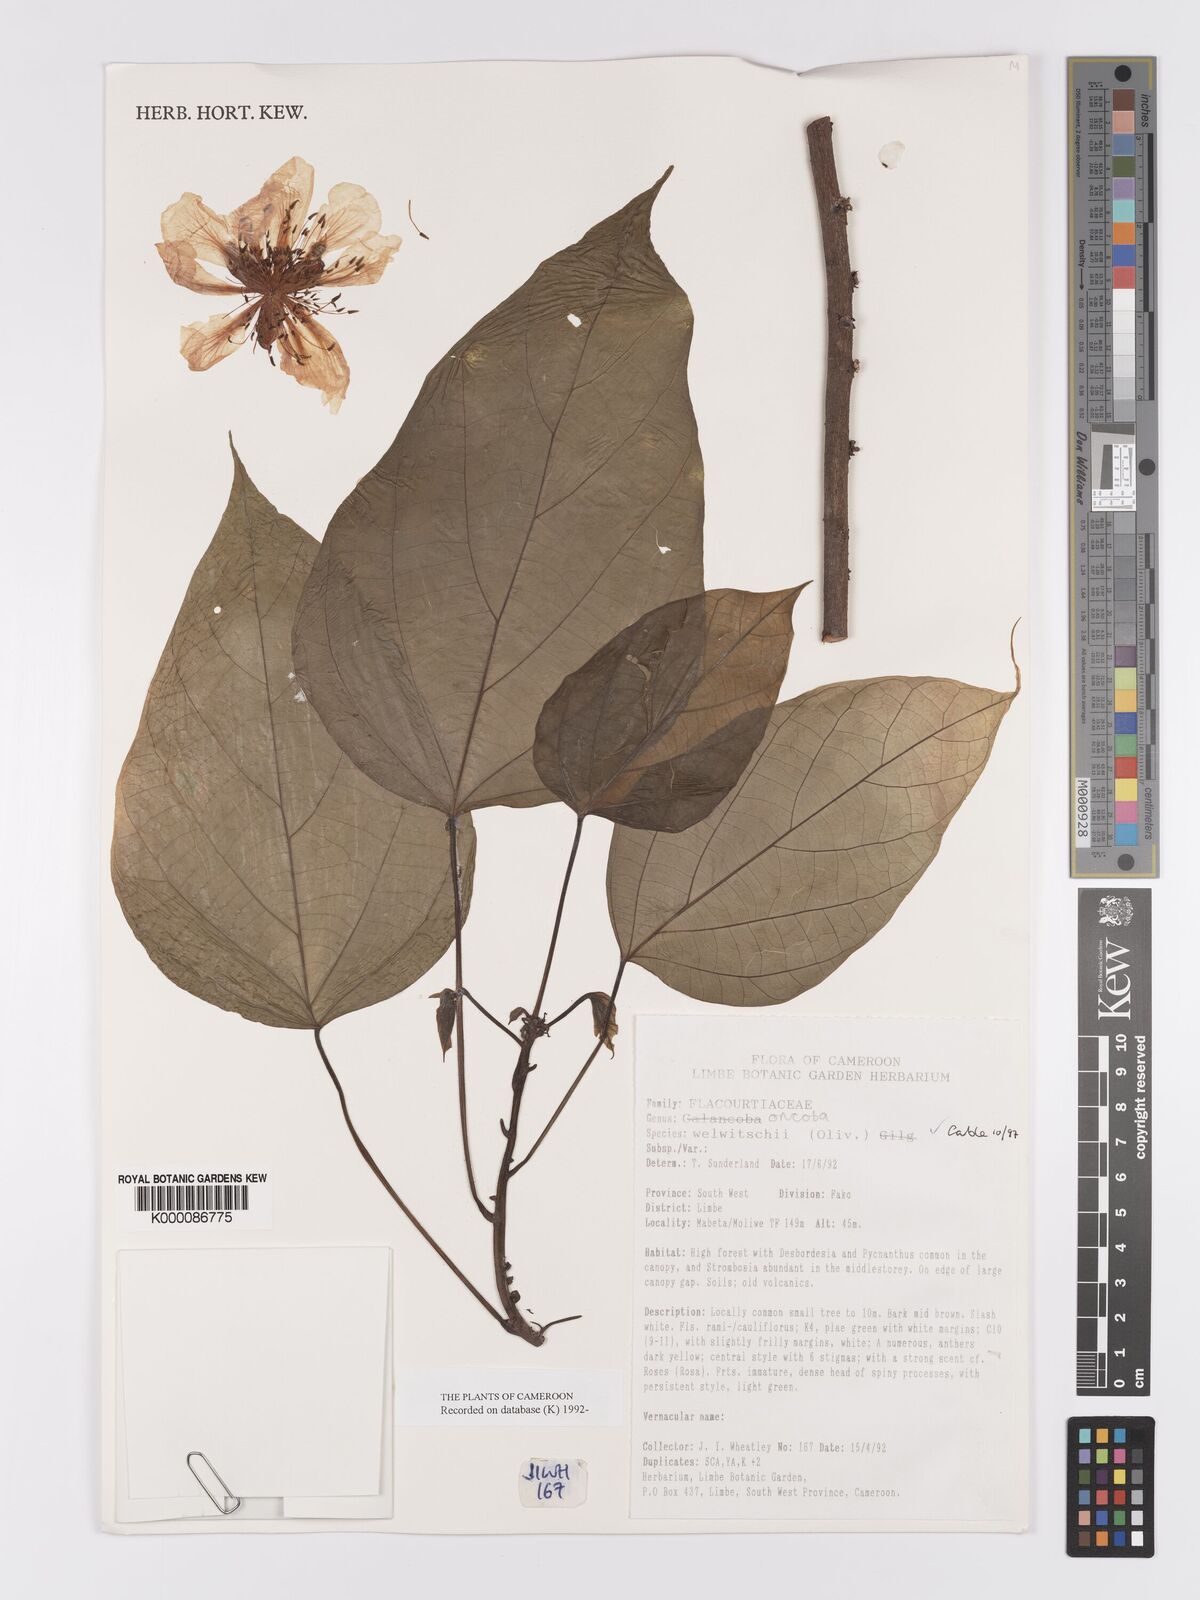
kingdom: Plantae
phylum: Tracheophyta
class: Magnoliopsida
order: Malpighiales
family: Achariaceae
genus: Caloncoba
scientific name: Caloncoba welwitschii
